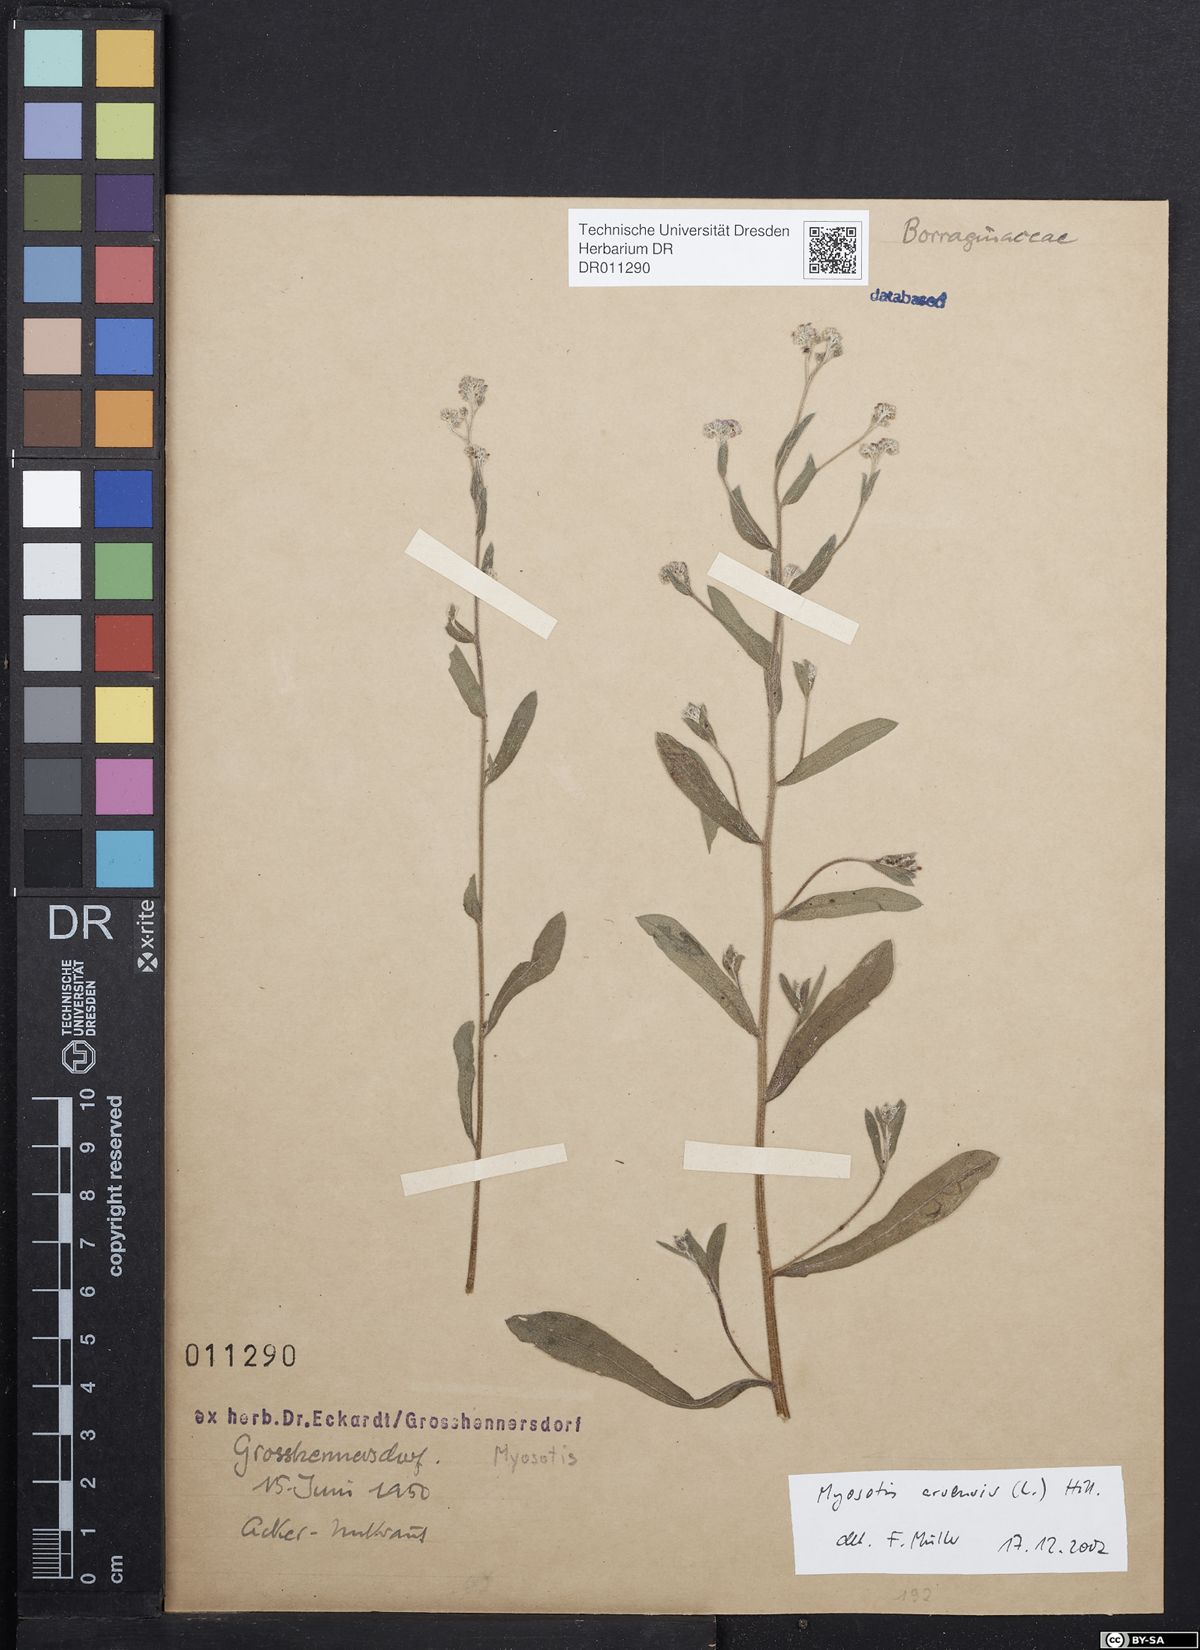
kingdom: Plantae
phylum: Tracheophyta
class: Magnoliopsida
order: Boraginales
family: Boraginaceae
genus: Myosotis
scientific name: Myosotis arvensis
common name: Field forget-me-not
